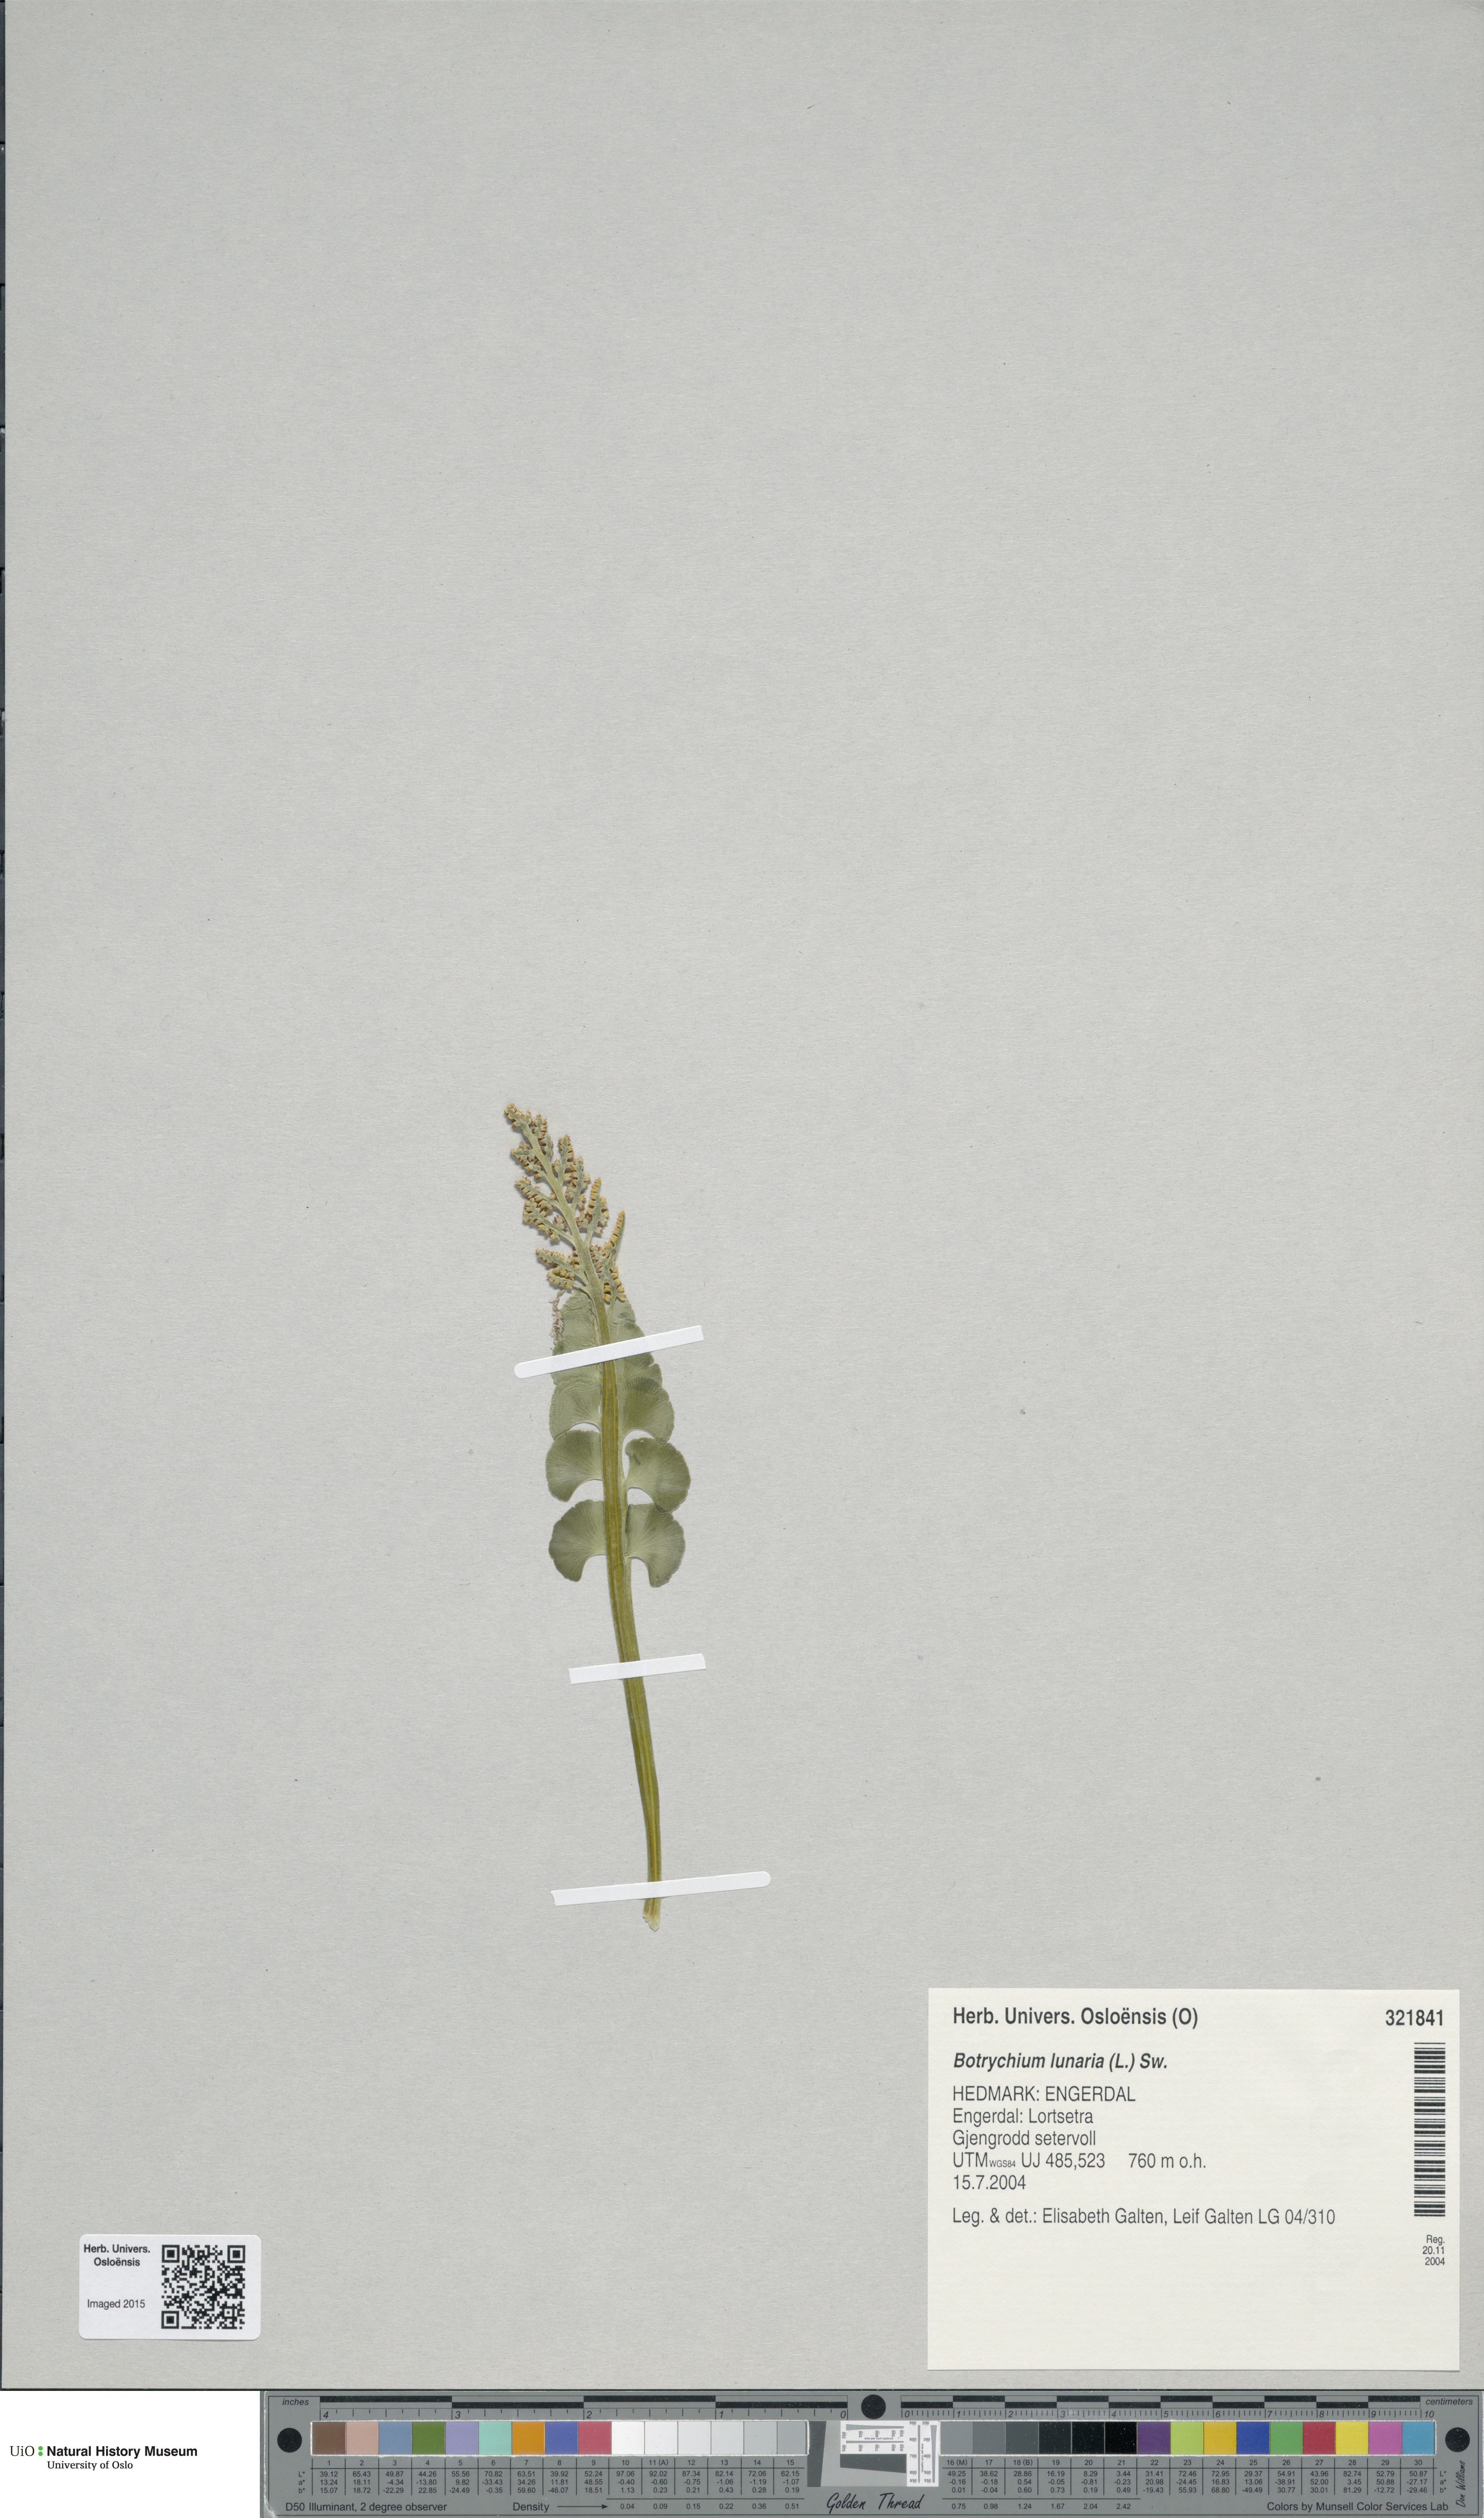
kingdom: Plantae
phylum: Tracheophyta
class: Polypodiopsida
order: Ophioglossales
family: Ophioglossaceae
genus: Botrychium
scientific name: Botrychium lunaria
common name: Moonwort
